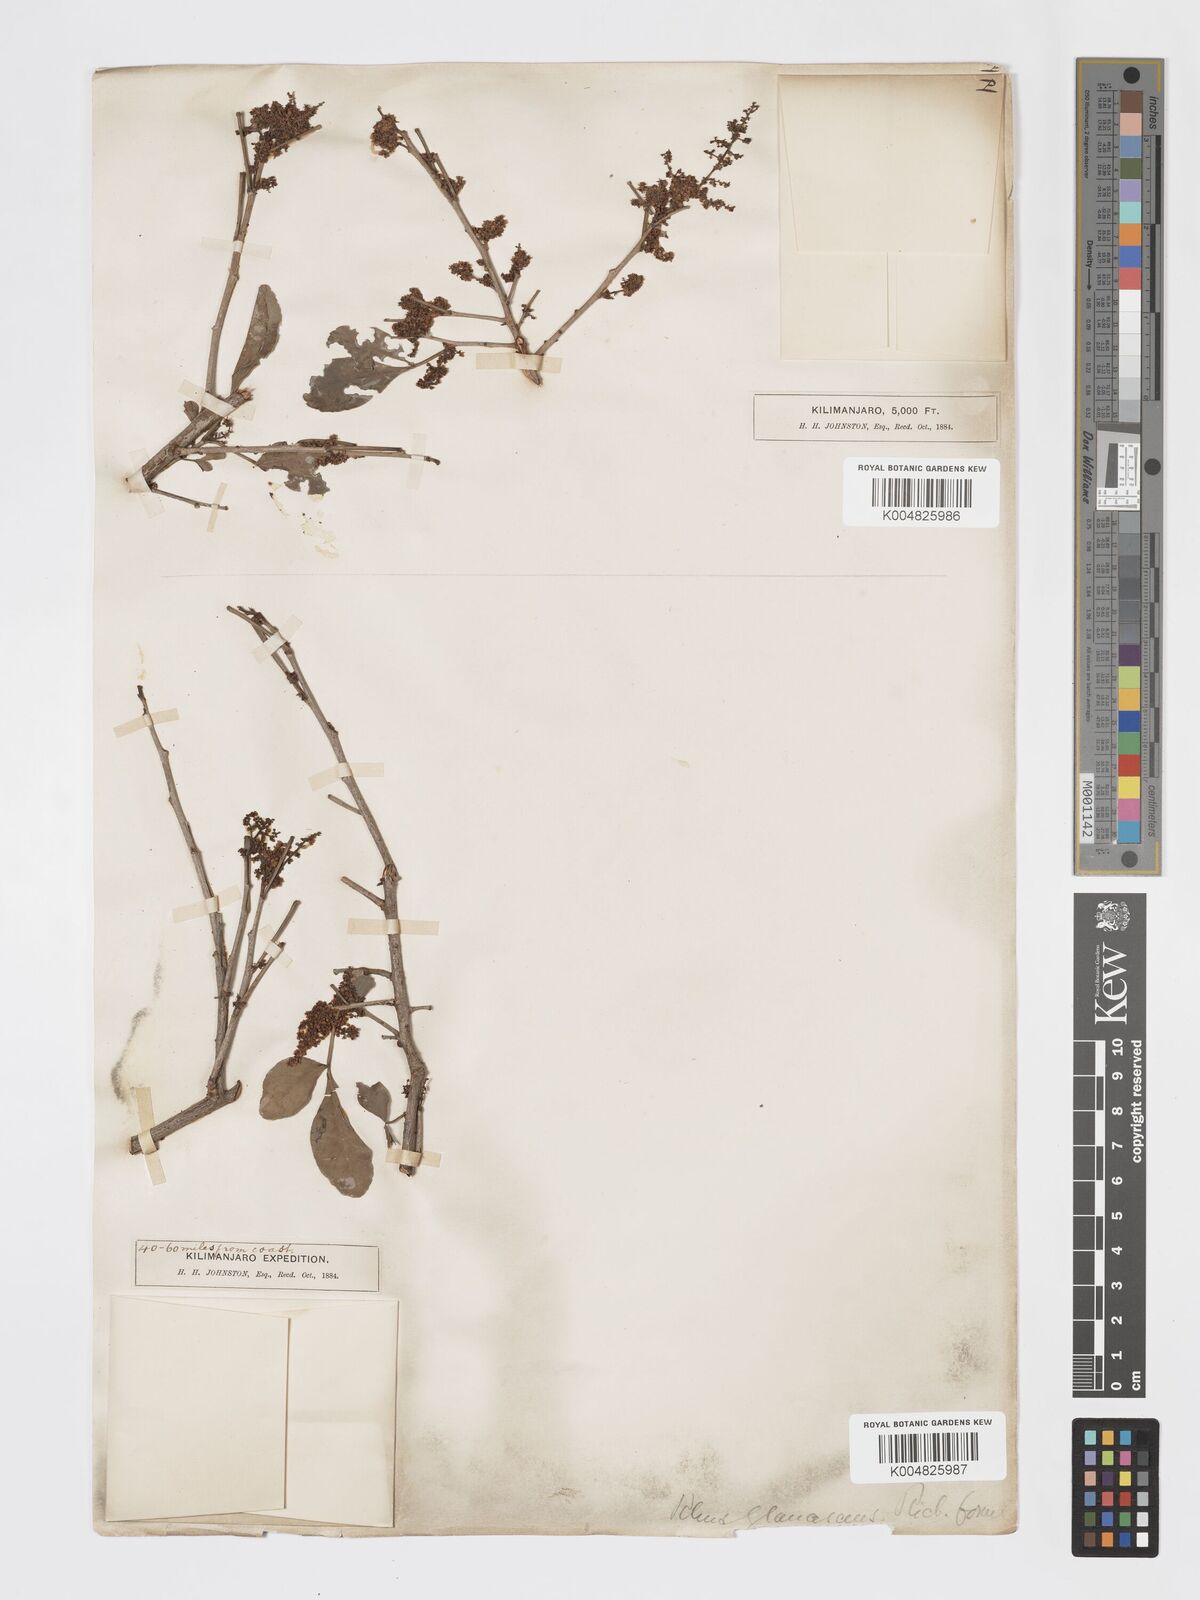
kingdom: Plantae
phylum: Tracheophyta
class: Magnoliopsida
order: Sapindales
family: Anacardiaceae
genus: Searsia
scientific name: Searsia natalensis
